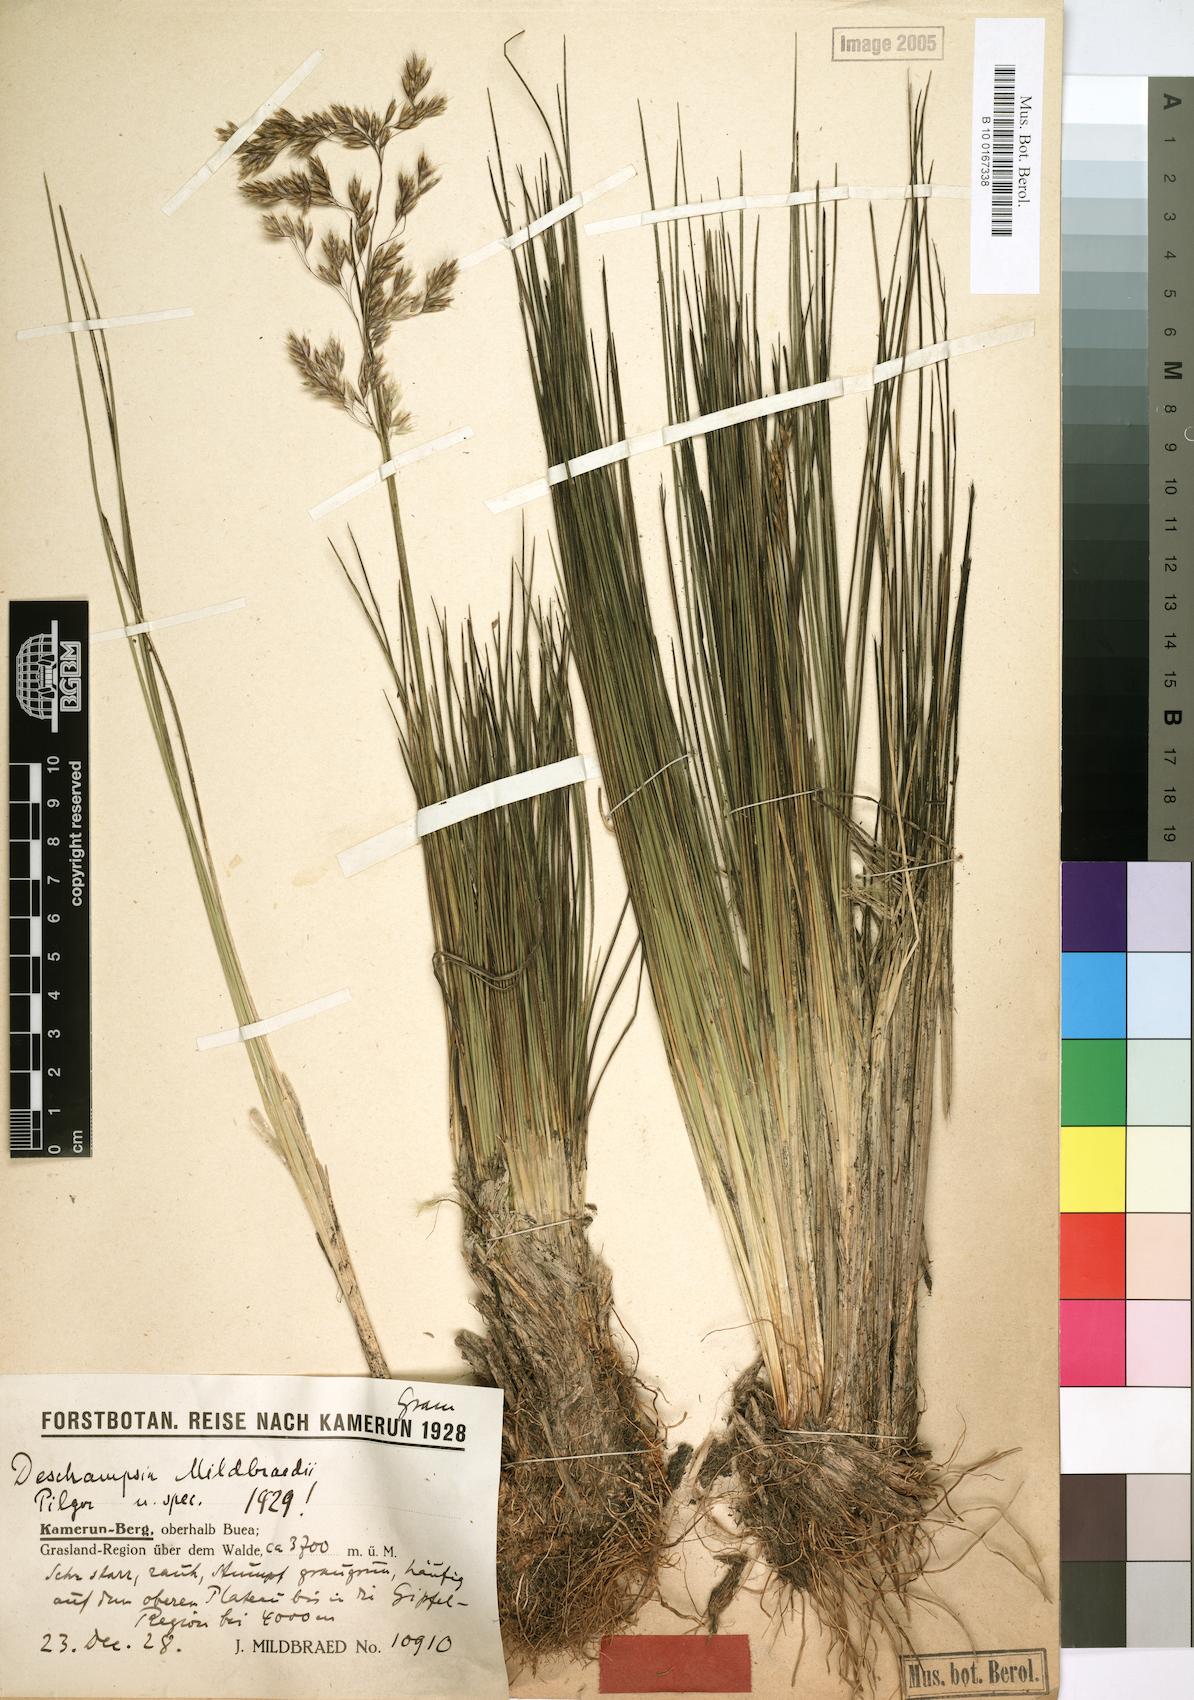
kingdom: Plantae
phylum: Tracheophyta
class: Liliopsida
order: Poales
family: Poaceae
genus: Deschampsia
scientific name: Deschampsia mildbraedii
